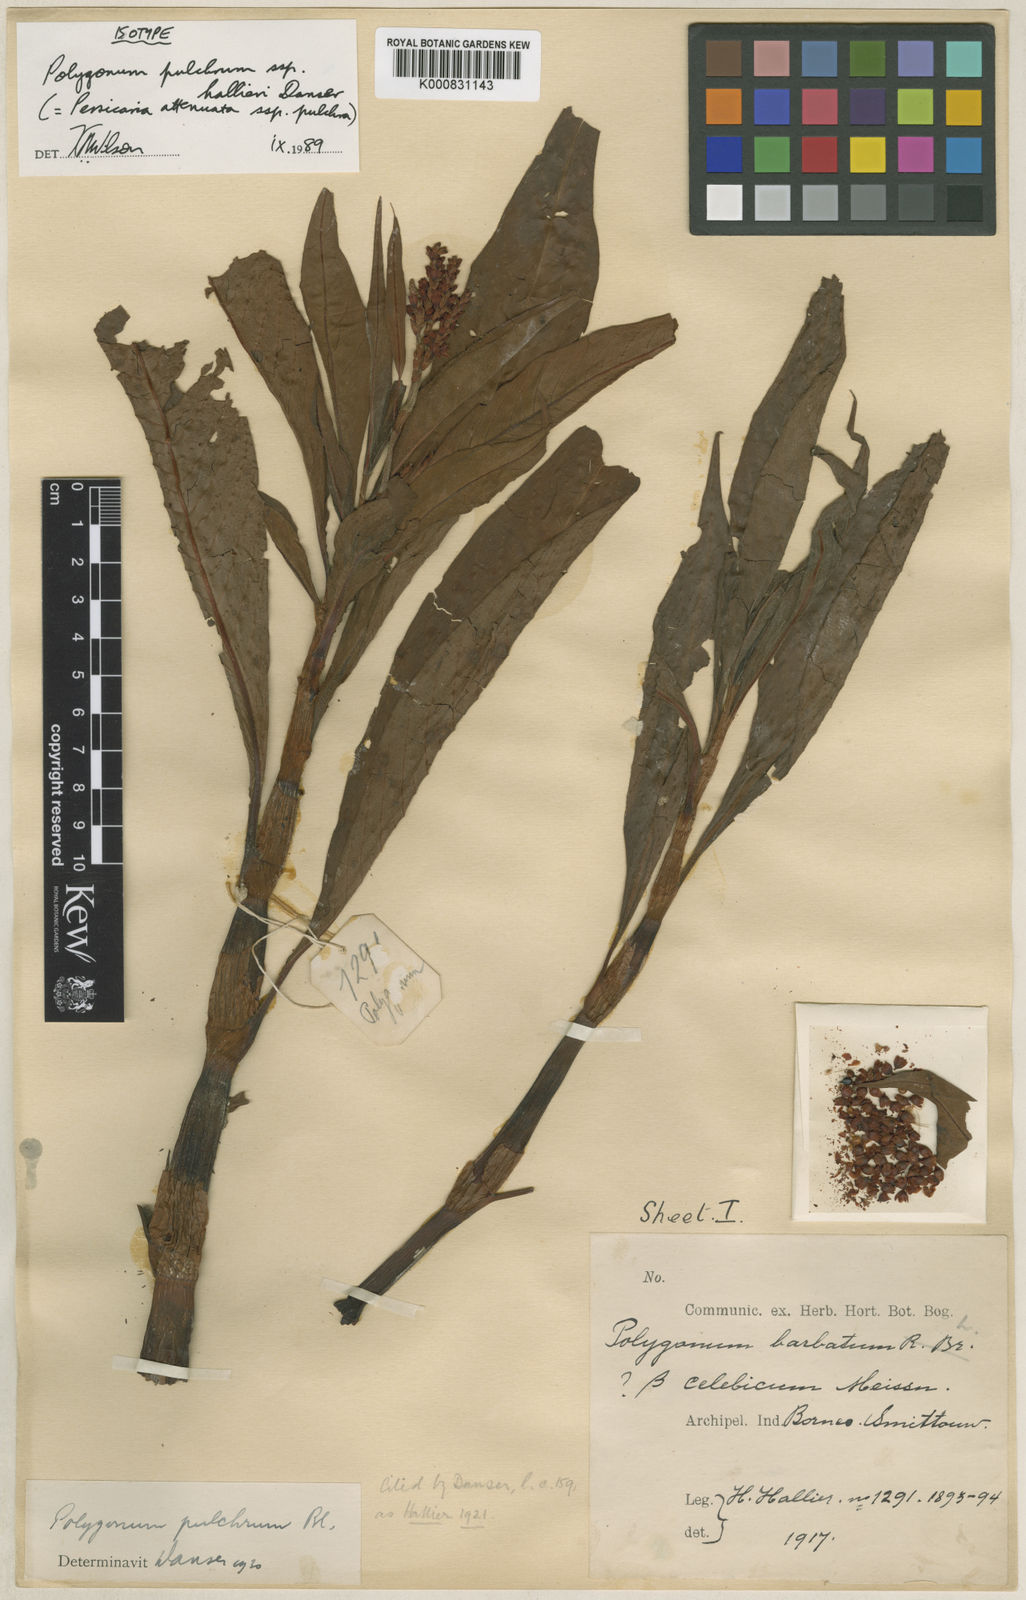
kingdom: Plantae
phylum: Tracheophyta
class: Magnoliopsida
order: Caryophyllales
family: Polygonaceae
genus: Persicaria
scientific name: Persicaria
